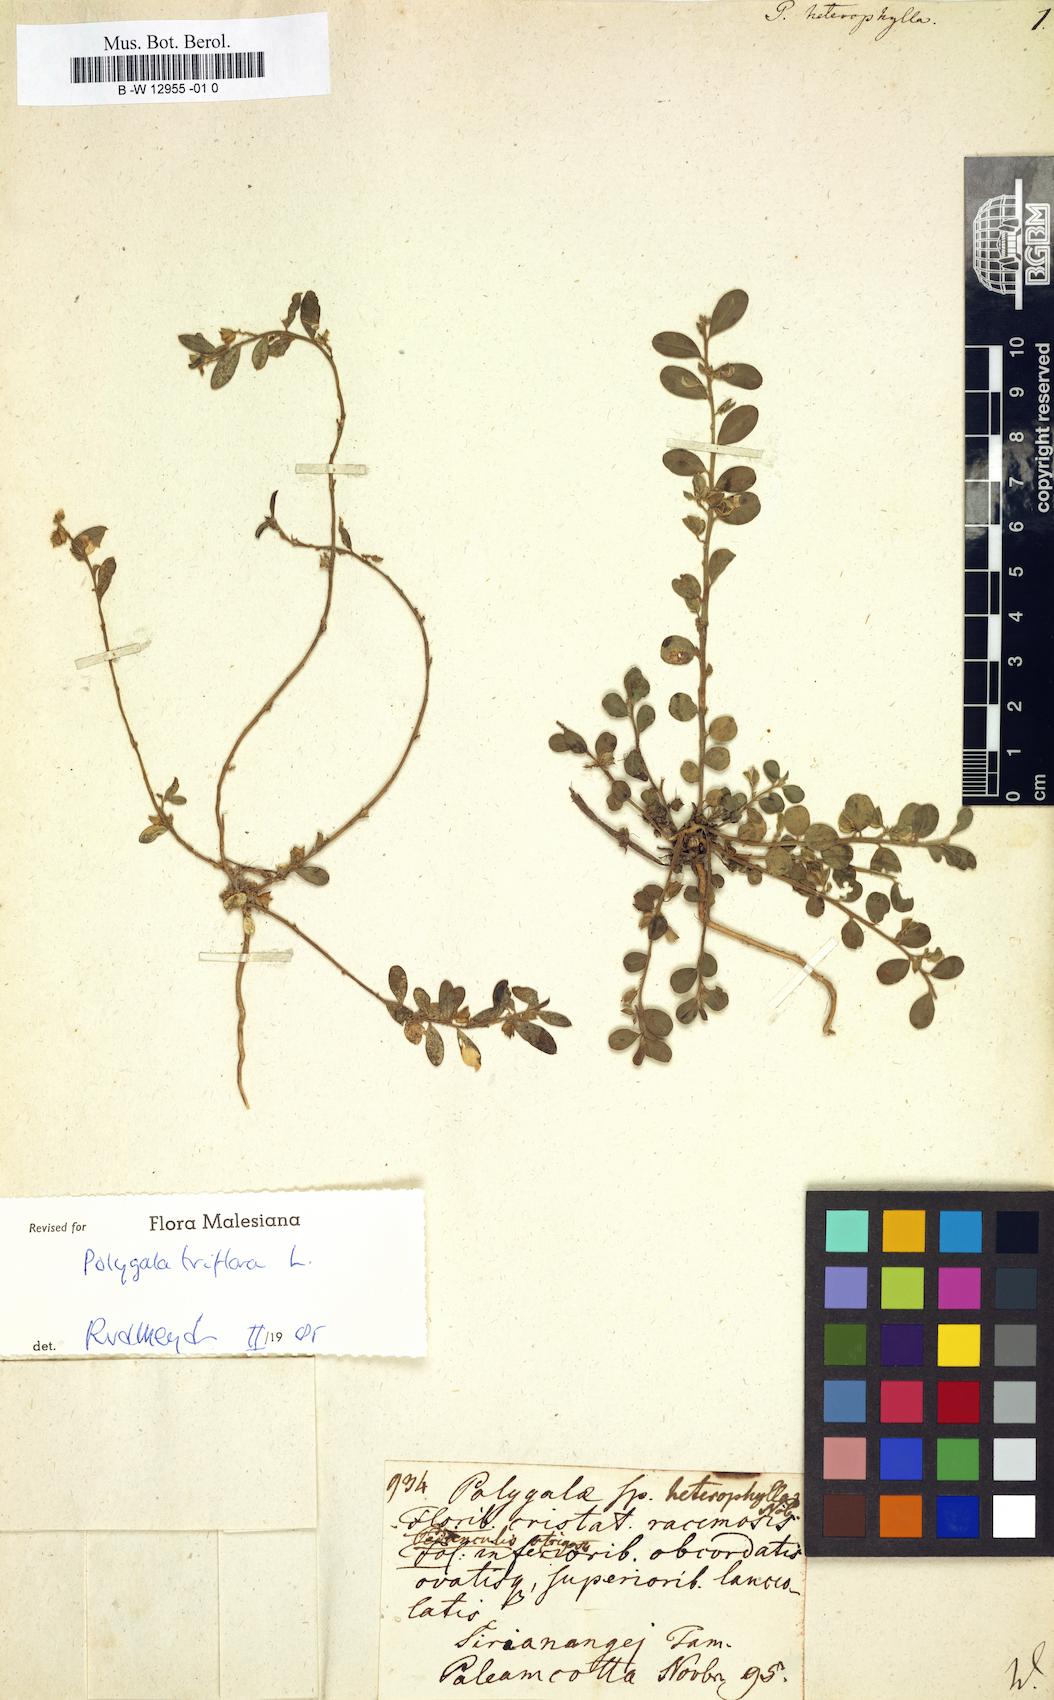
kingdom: Plantae
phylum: Tracheophyta
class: Magnoliopsida
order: Fabales
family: Polygalaceae
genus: Polygala
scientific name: Polygala
